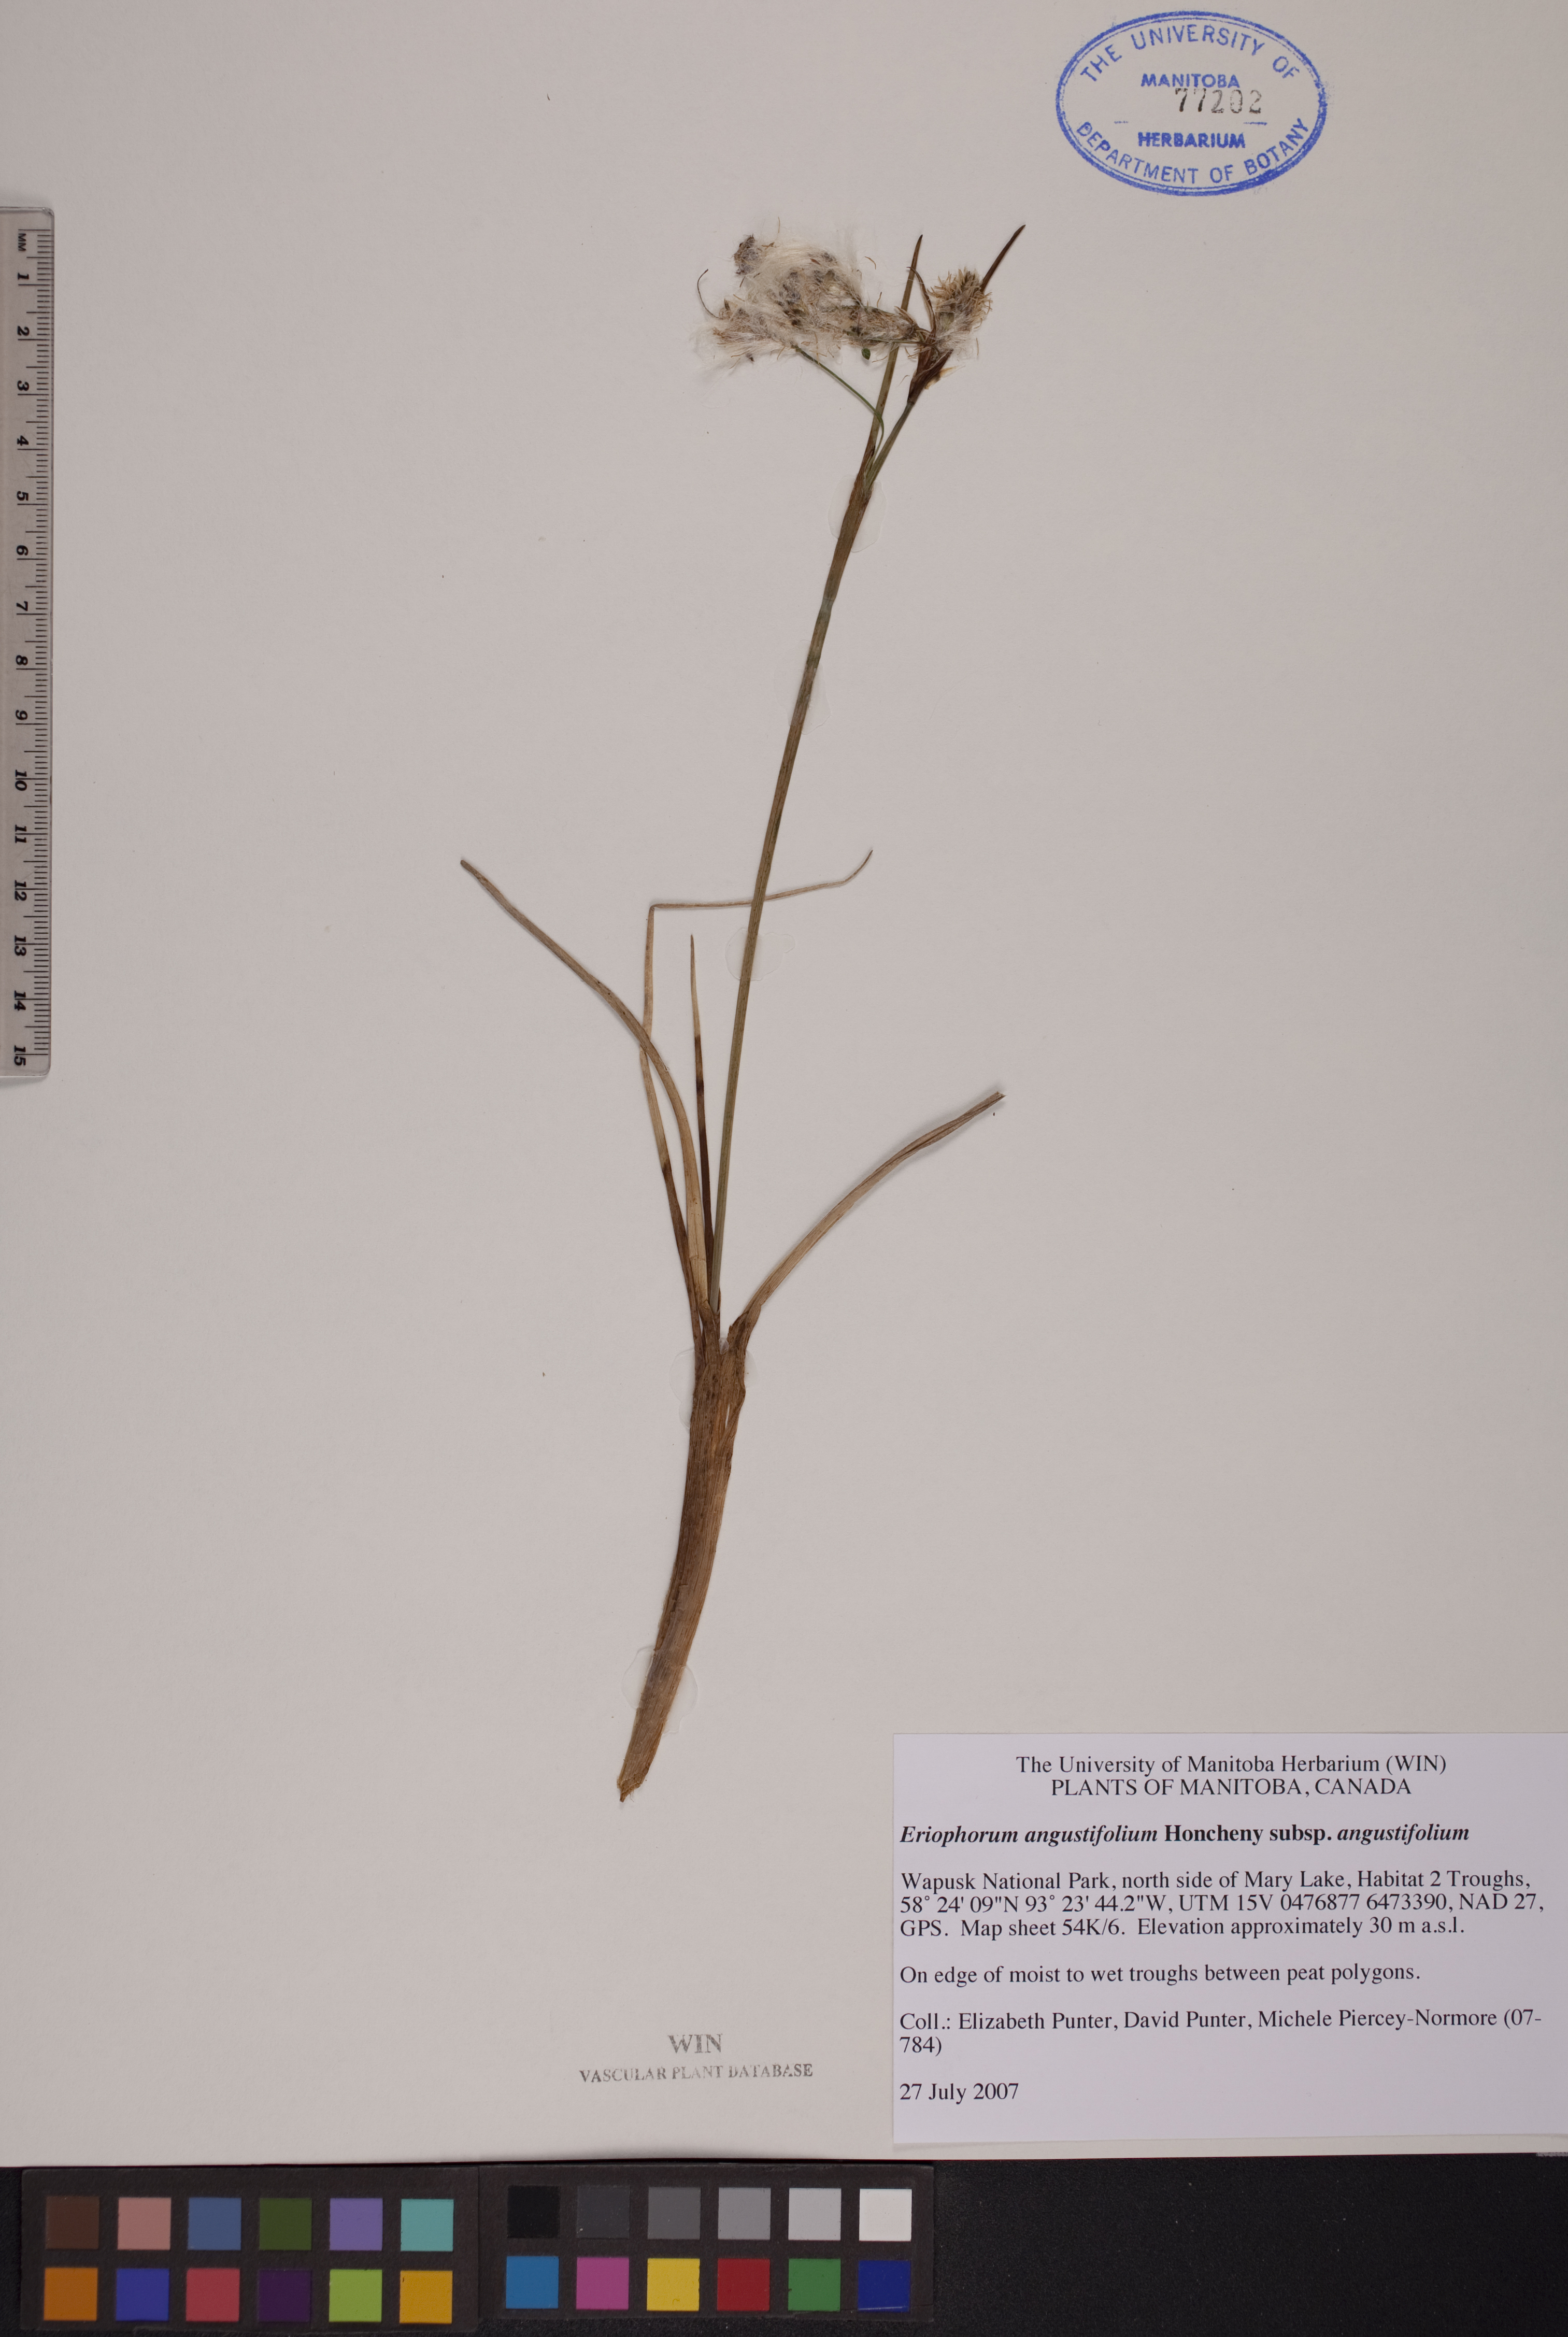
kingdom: Plantae
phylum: Tracheophyta
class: Liliopsida
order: Poales
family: Cyperaceae
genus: Eriophorum
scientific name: Eriophorum angustifolium
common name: Common cottongrass
